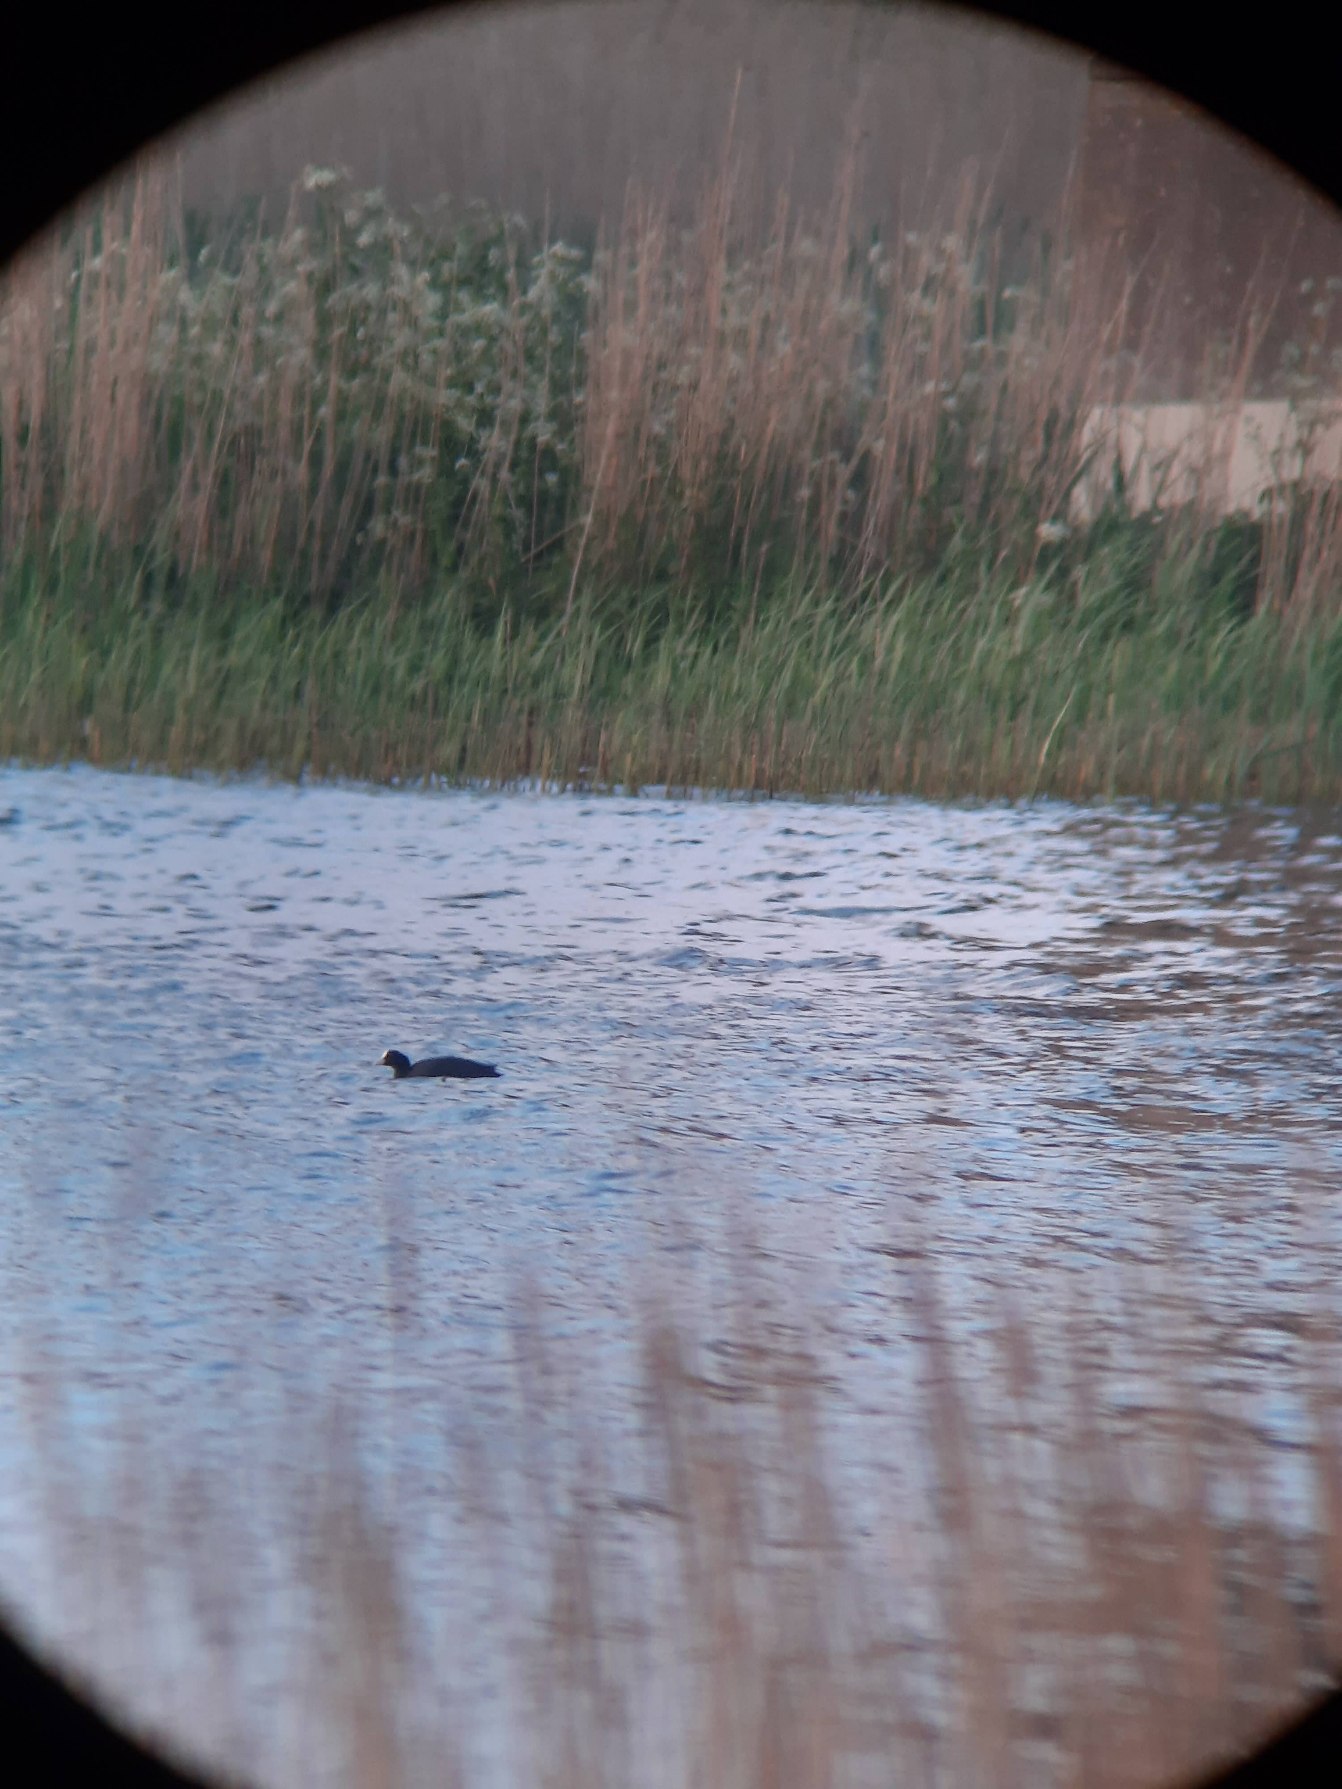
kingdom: Animalia
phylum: Chordata
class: Aves
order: Gruiformes
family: Rallidae
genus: Fulica
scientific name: Fulica atra
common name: Blishøne
